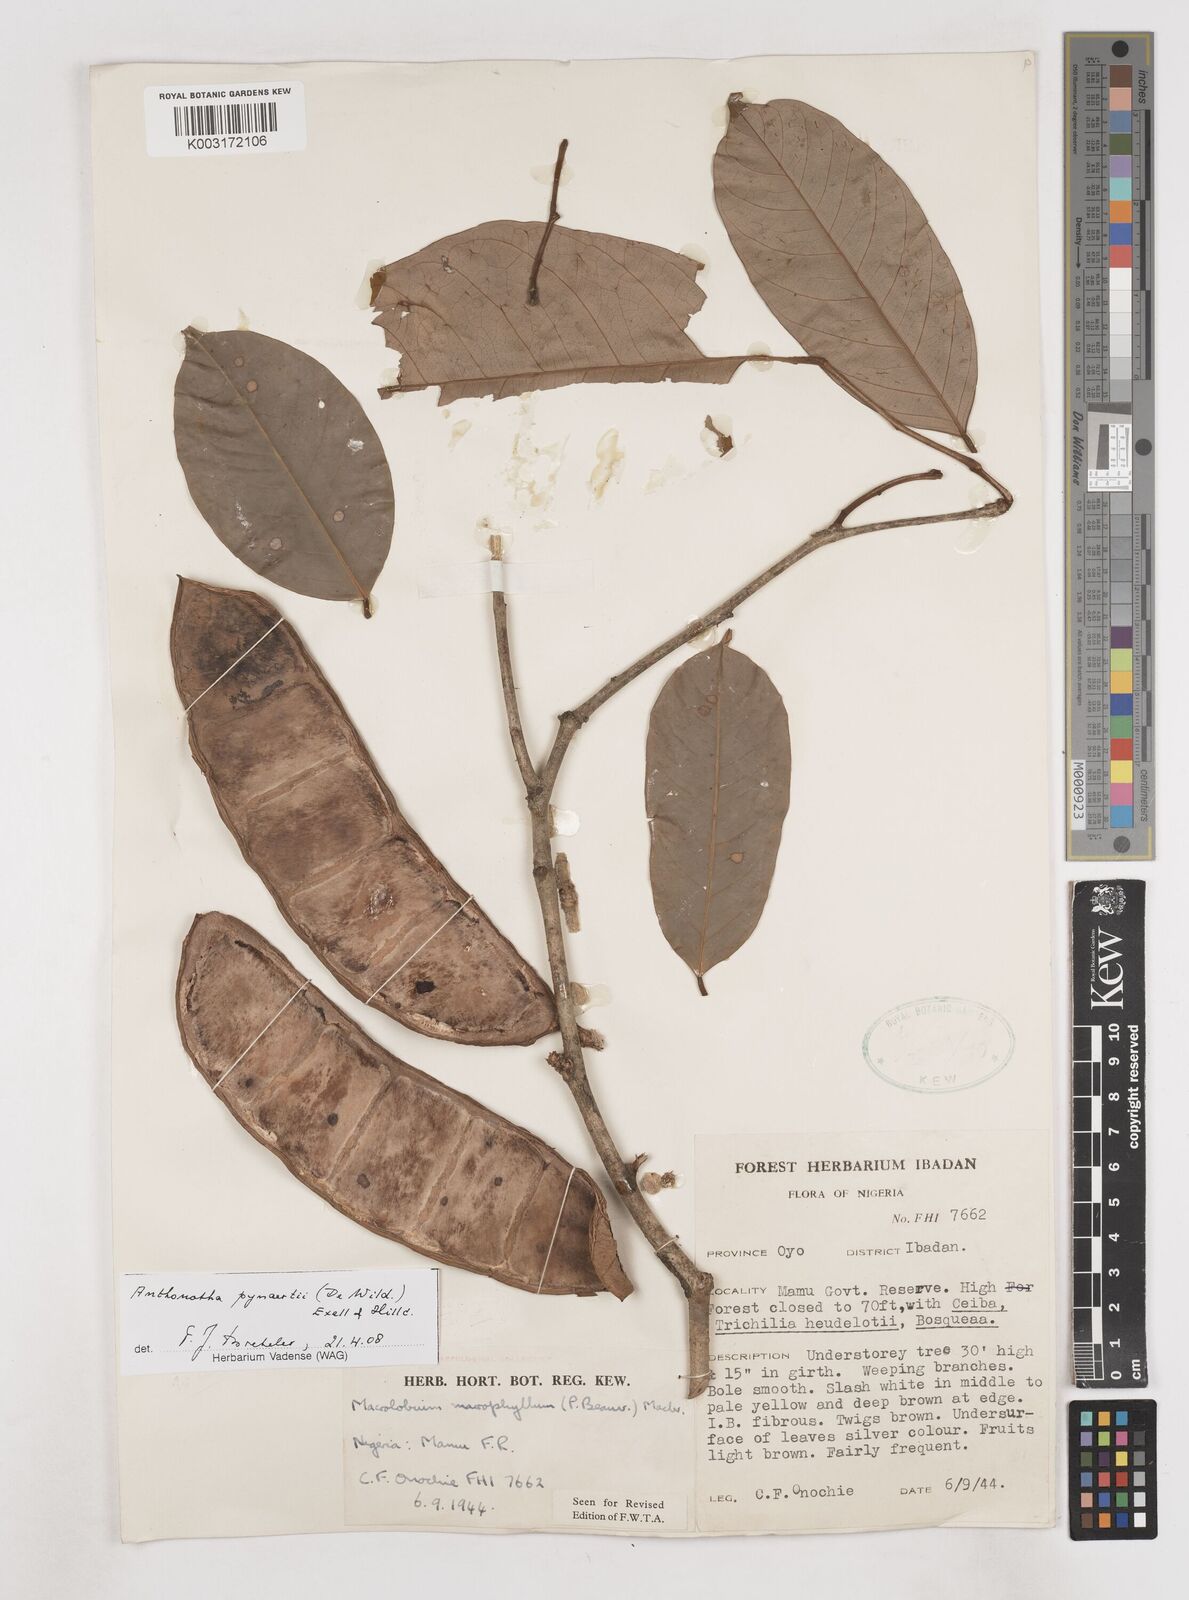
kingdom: Plantae
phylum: Tracheophyta
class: Magnoliopsida
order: Fabales
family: Fabaceae
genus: Anthonotha
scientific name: Anthonotha pynaertii
